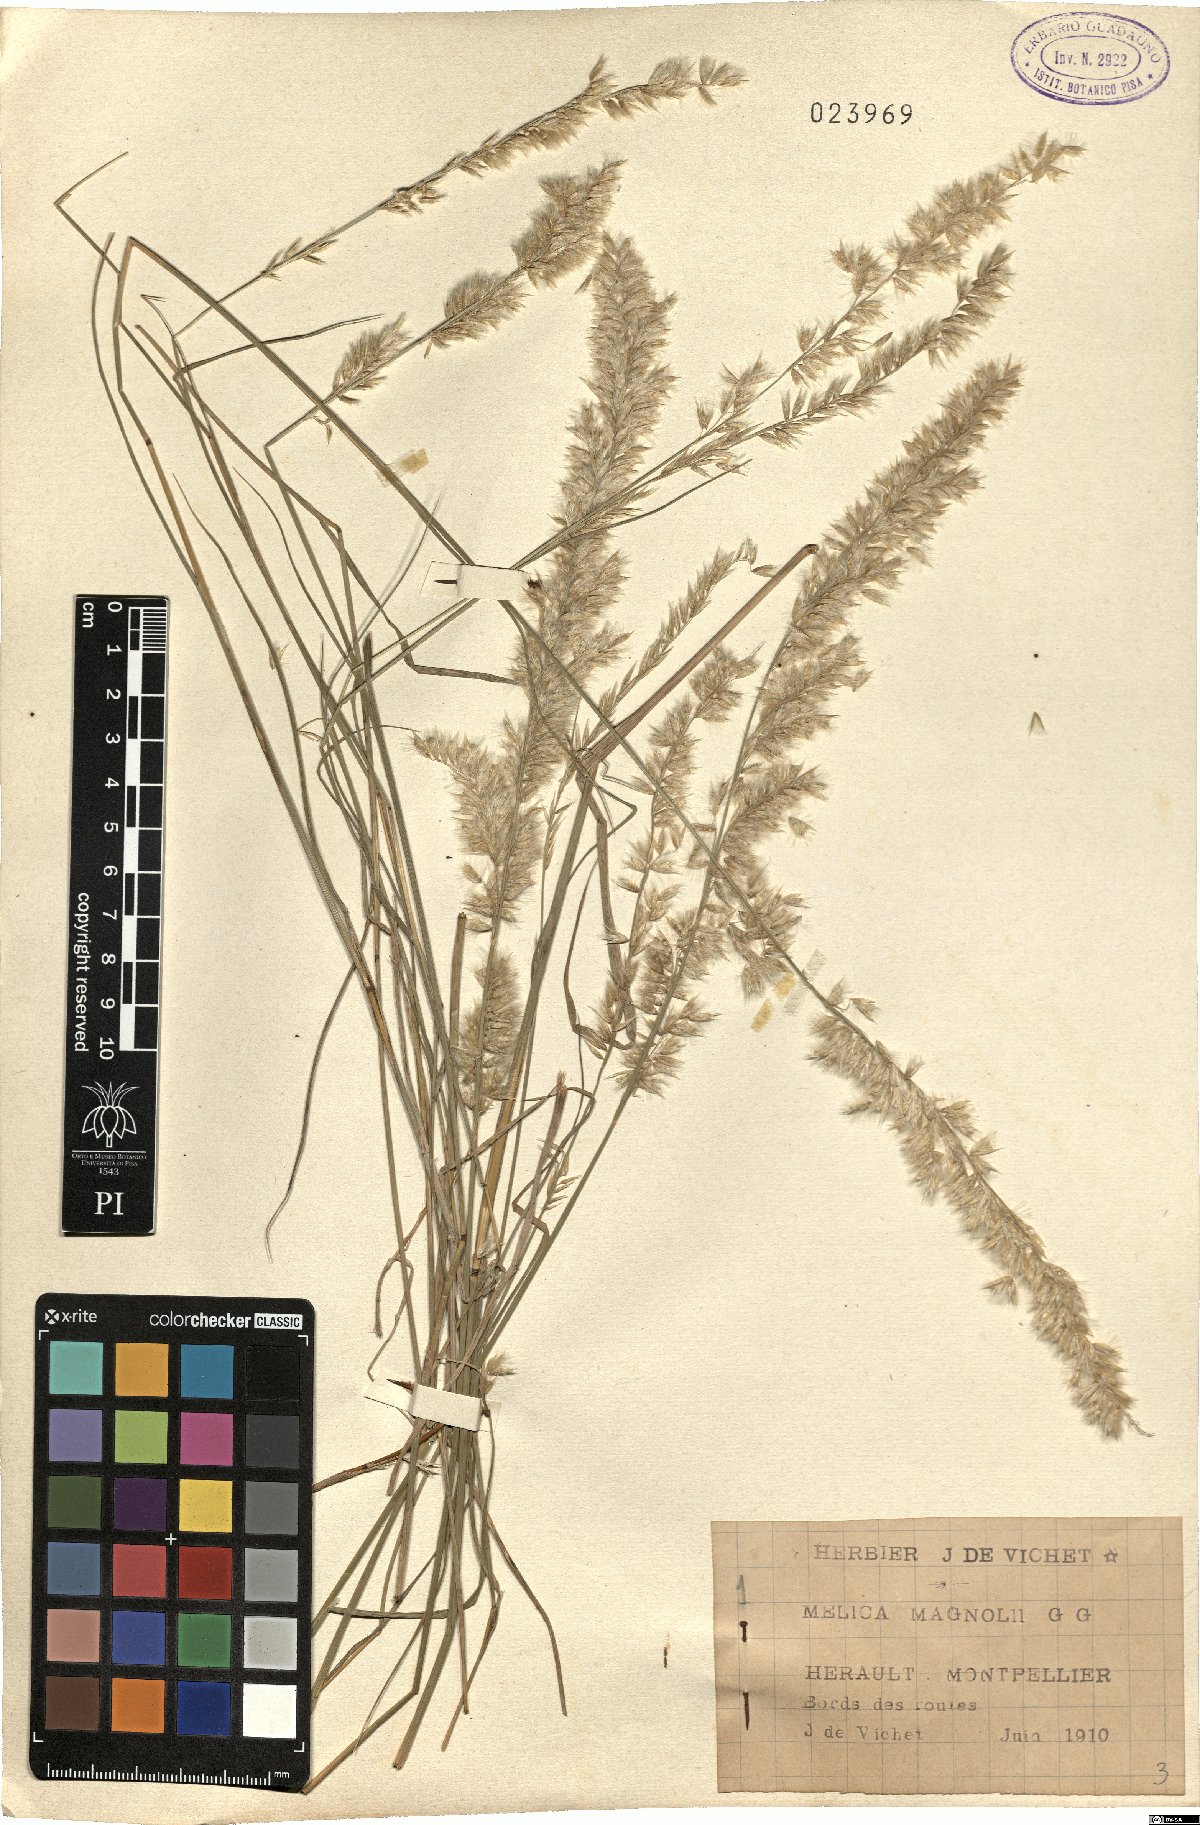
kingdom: Plantae
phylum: Tracheophyta
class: Liliopsida
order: Poales
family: Poaceae
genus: Melica
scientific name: Melica ciliata
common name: Hairy melicgrass
